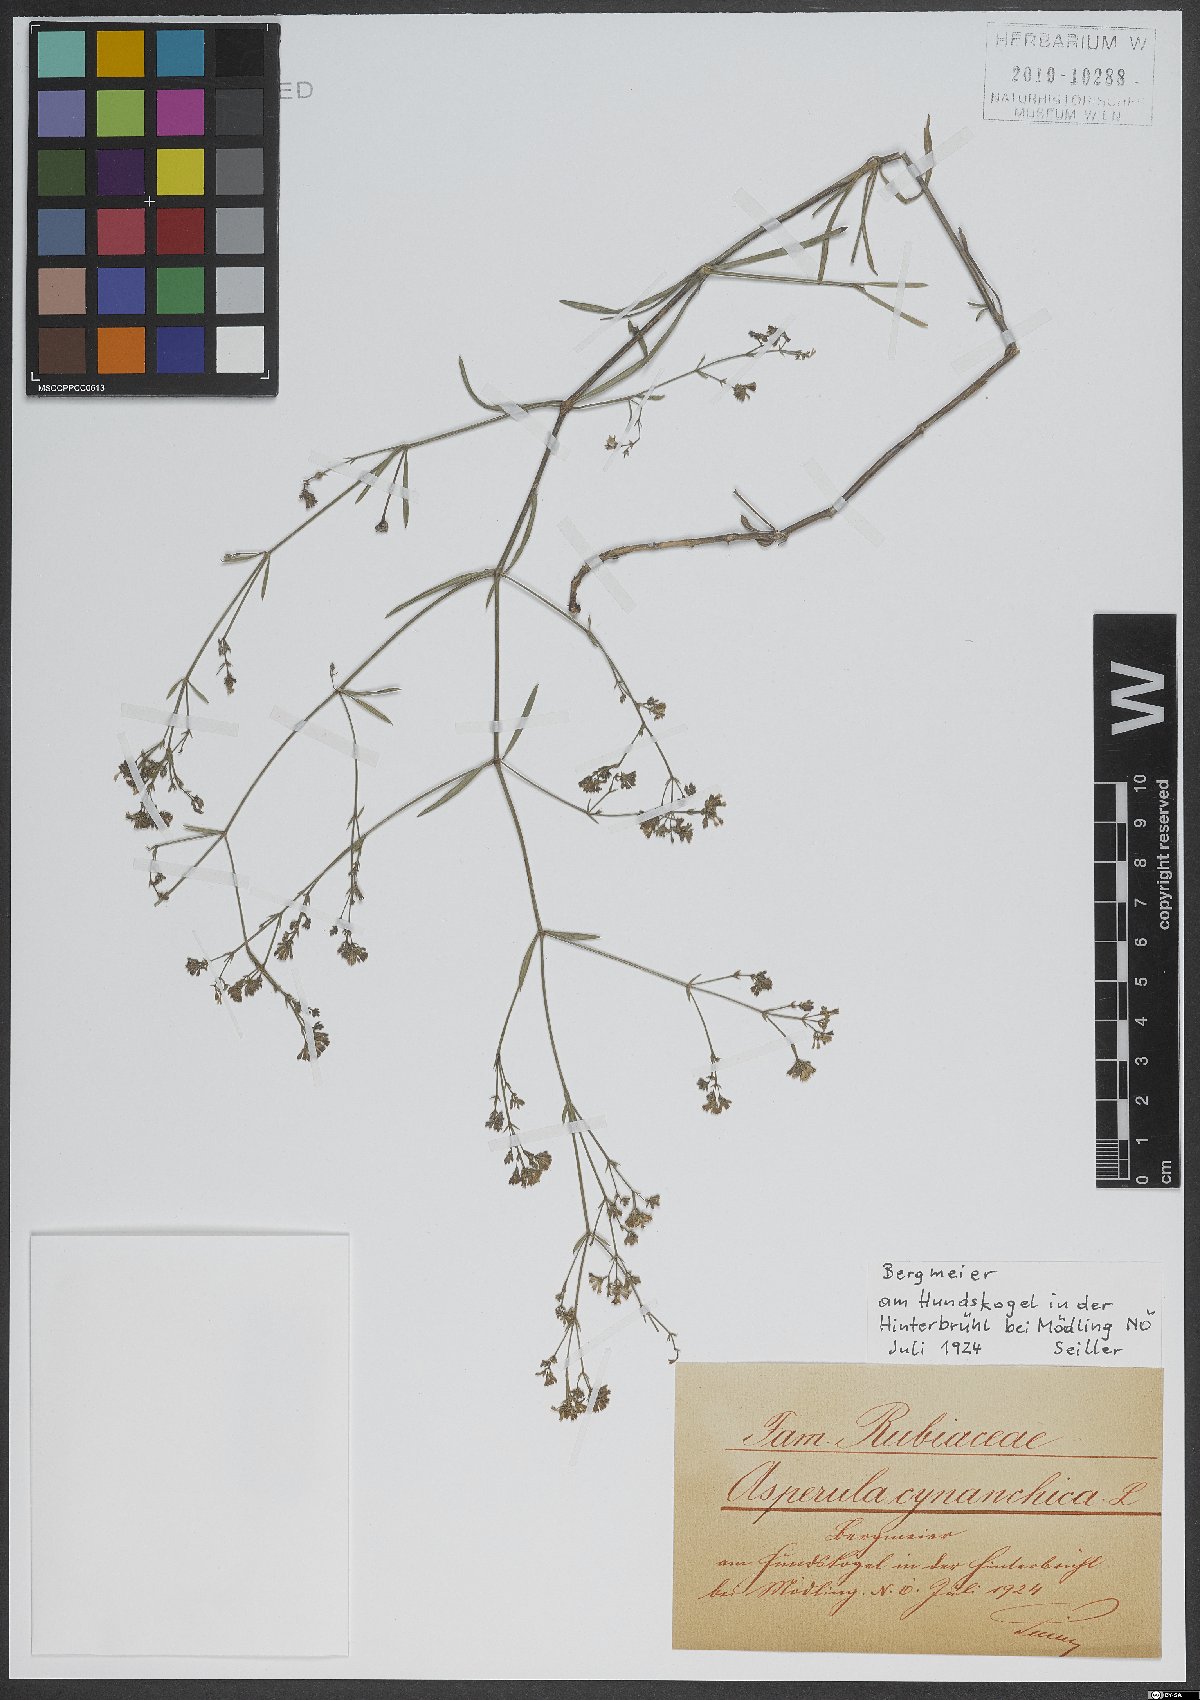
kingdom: Plantae
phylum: Tracheophyta
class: Magnoliopsida
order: Gentianales
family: Rubiaceae
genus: Cynanchica
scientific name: Cynanchica pyrenaica
